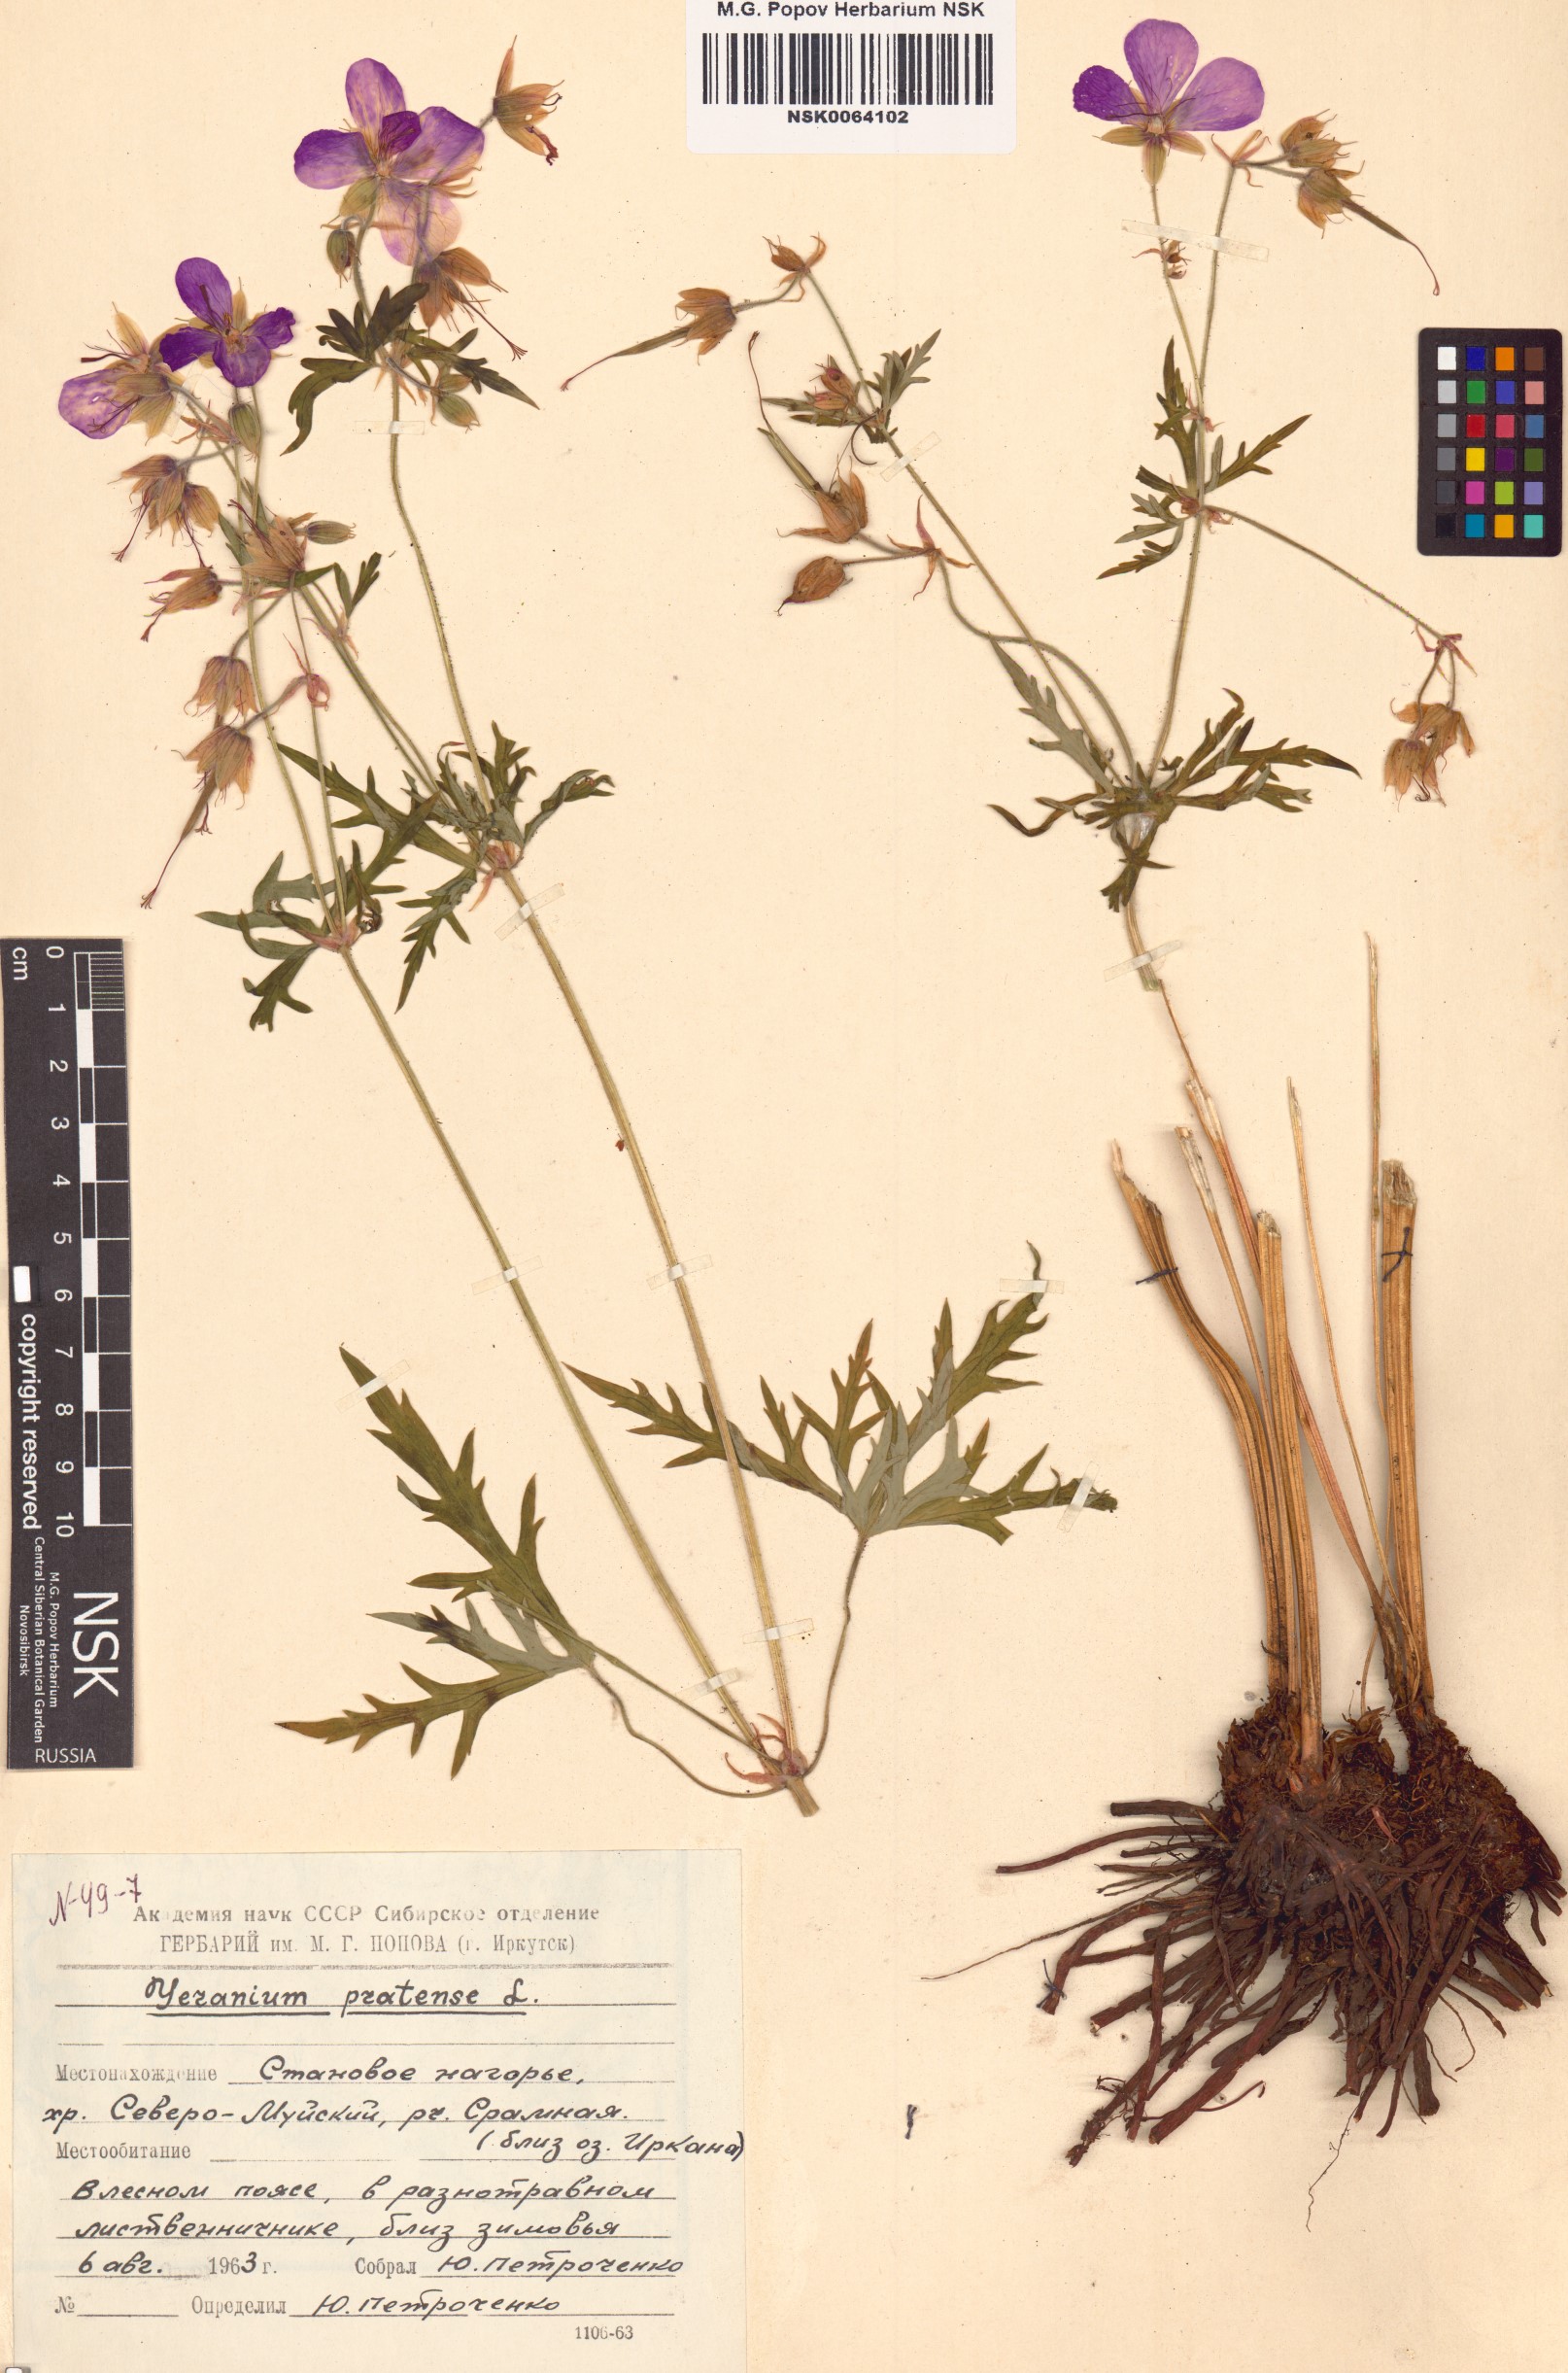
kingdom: Plantae
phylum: Tracheophyta
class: Magnoliopsida
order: Geraniales
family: Geraniaceae
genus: Geranium
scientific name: Geranium pratense
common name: Meadow crane's-bill
